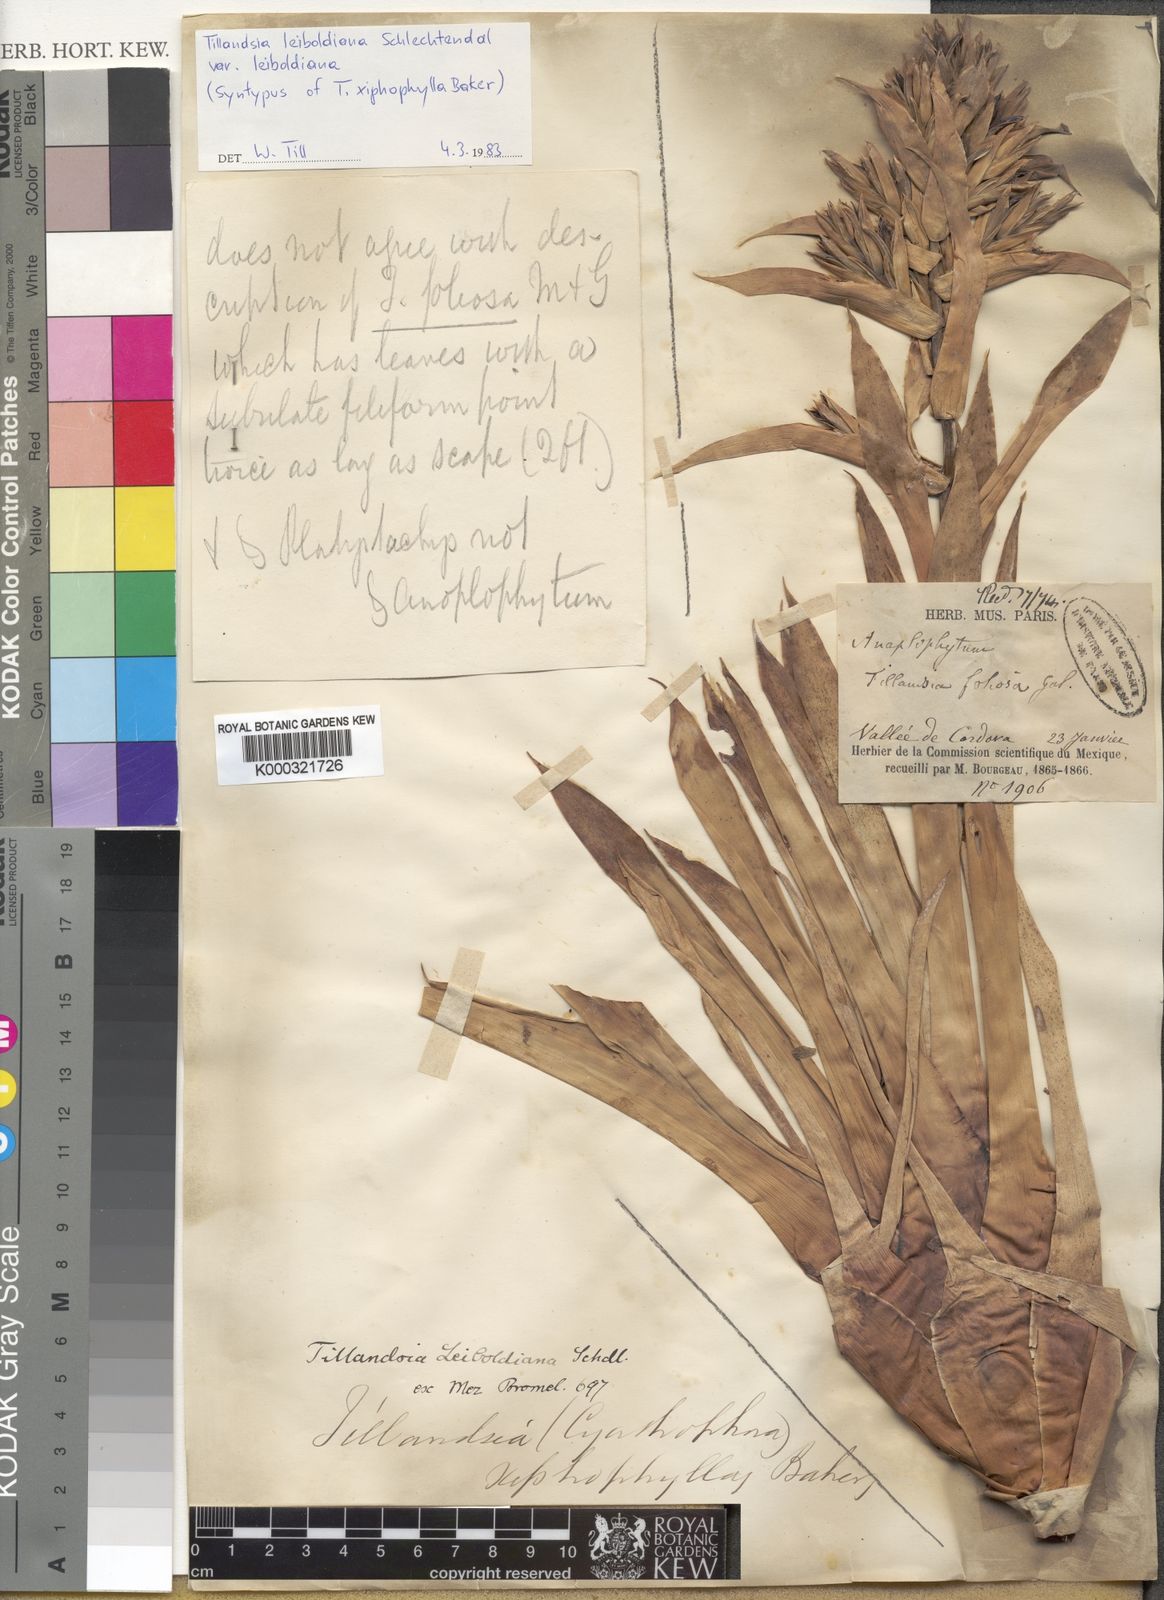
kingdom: Plantae
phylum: Tracheophyta
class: Liliopsida
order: Poales
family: Bromeliaceae
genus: Tillandsia
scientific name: Tillandsia leiboldiana
